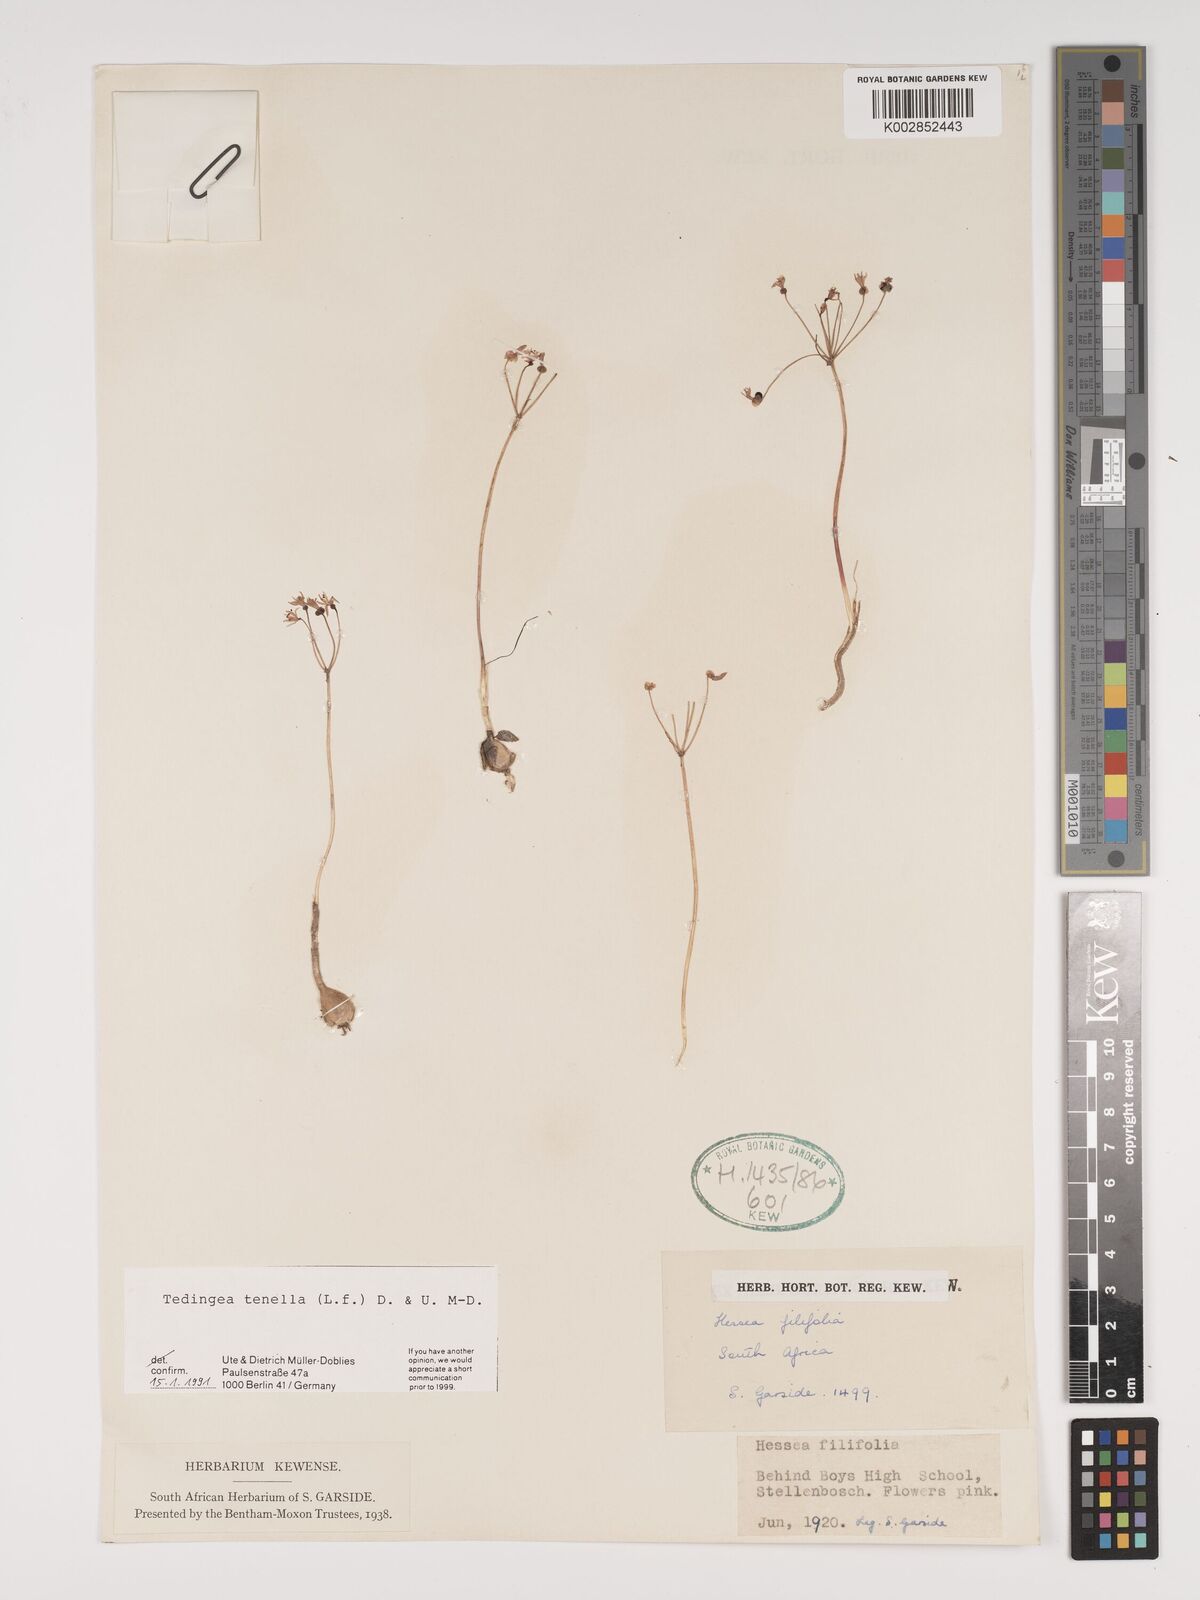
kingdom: Plantae
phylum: Tracheophyta
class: Liliopsida
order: Asparagales
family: Amaryllidaceae
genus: Strumaria
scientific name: Strumaria tenella
